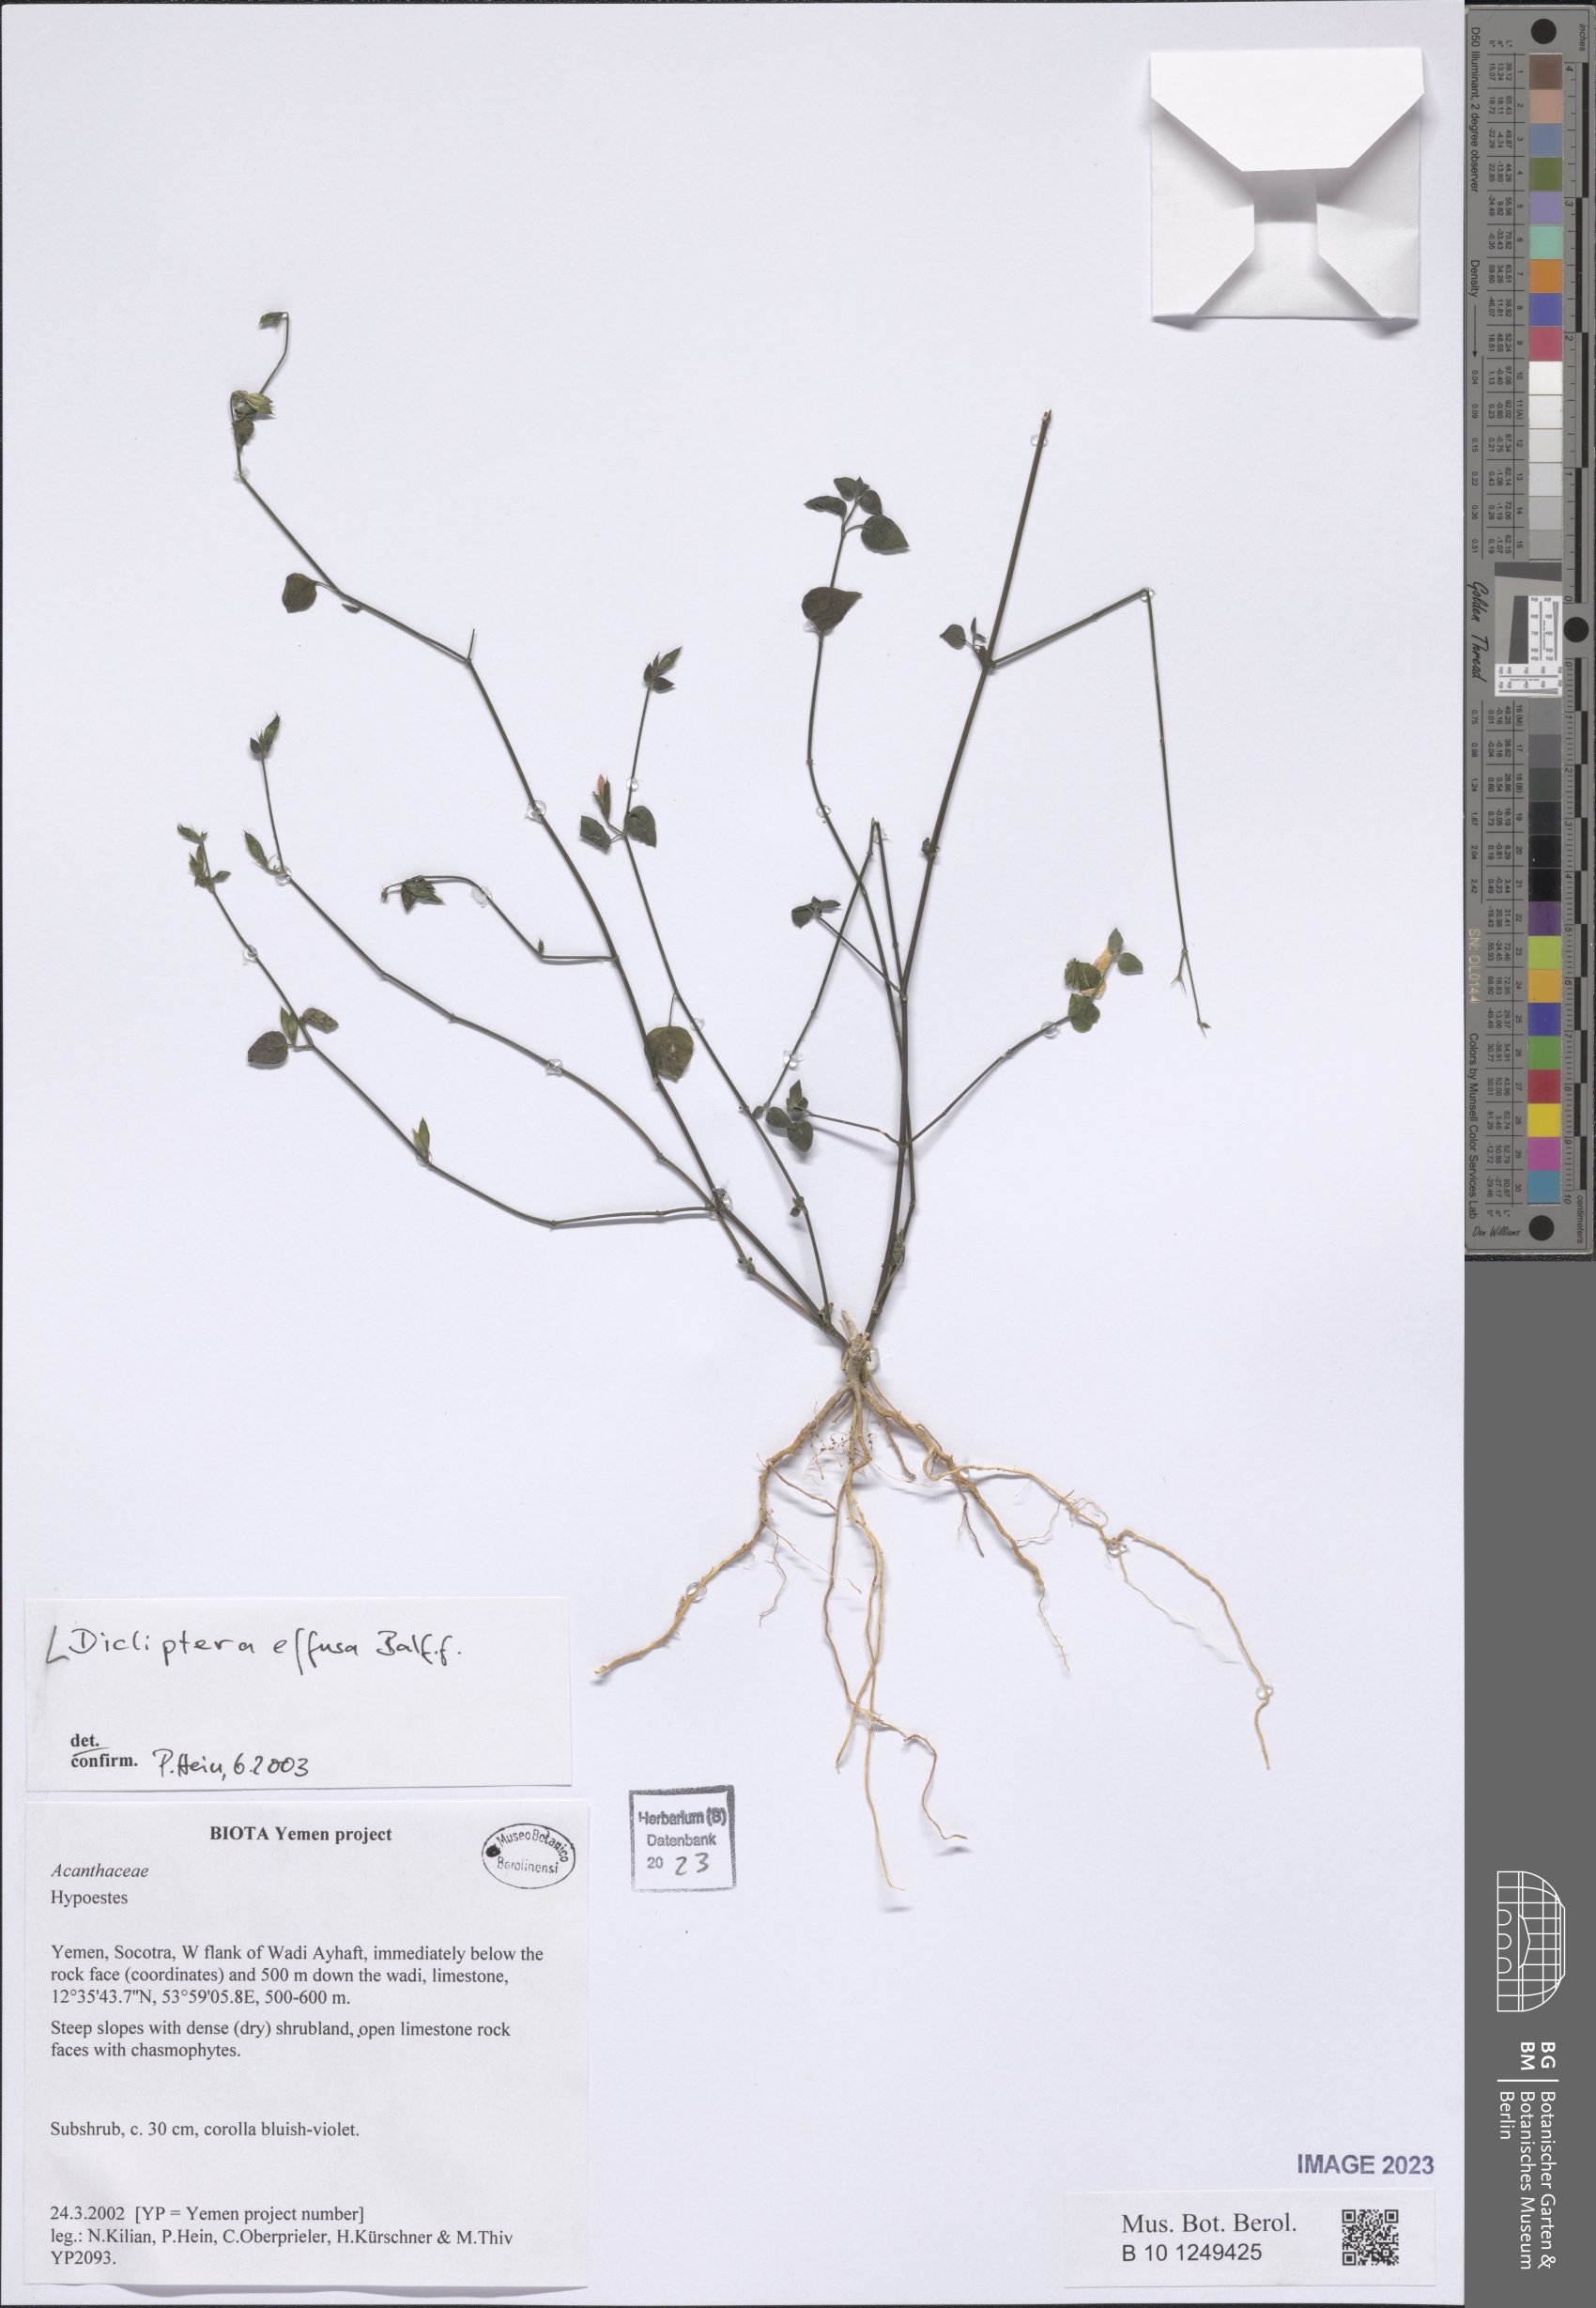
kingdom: Plantae
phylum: Tracheophyta
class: Magnoliopsida
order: Lamiales
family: Acanthaceae
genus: Dicliptera
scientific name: Dicliptera effusa
